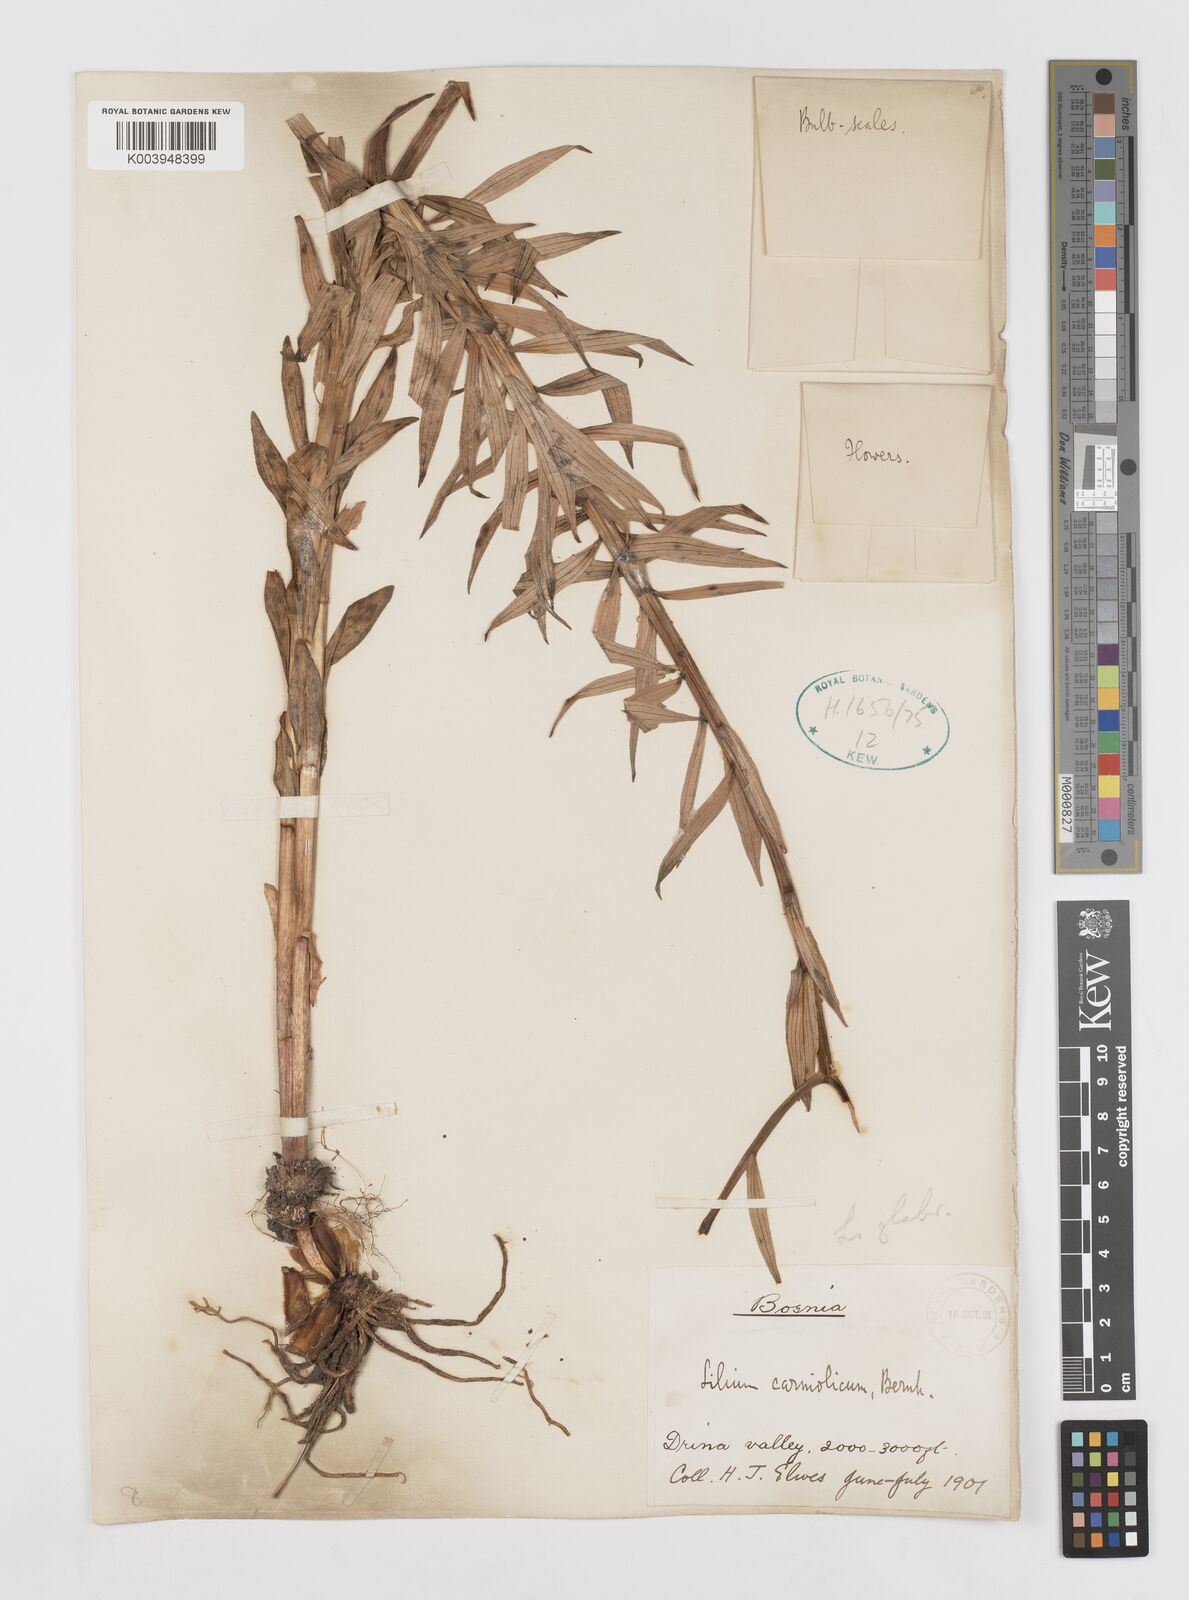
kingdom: Plantae
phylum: Tracheophyta
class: Liliopsida
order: Liliales
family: Liliaceae
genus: Lilium
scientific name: Lilium
